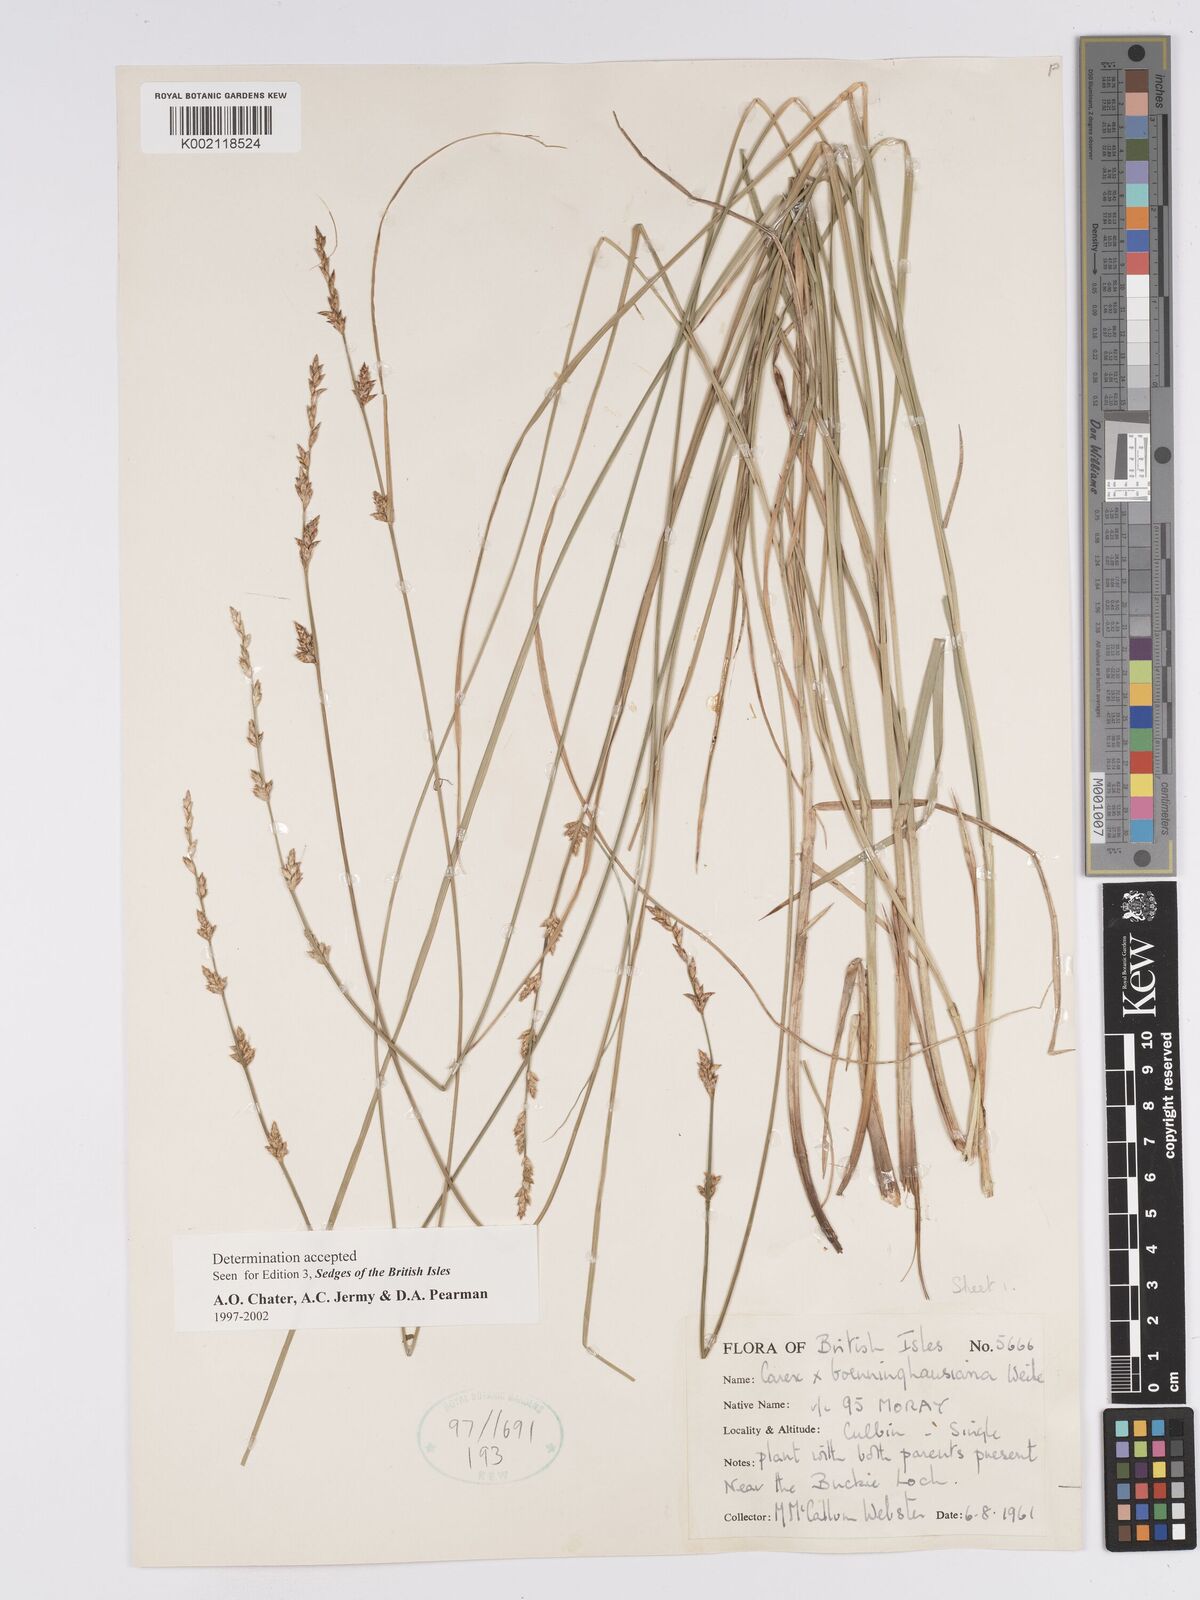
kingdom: Plantae
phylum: Tracheophyta
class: Liliopsida
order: Poales
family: Cyperaceae
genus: Carex
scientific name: Carex boenninghausiana
